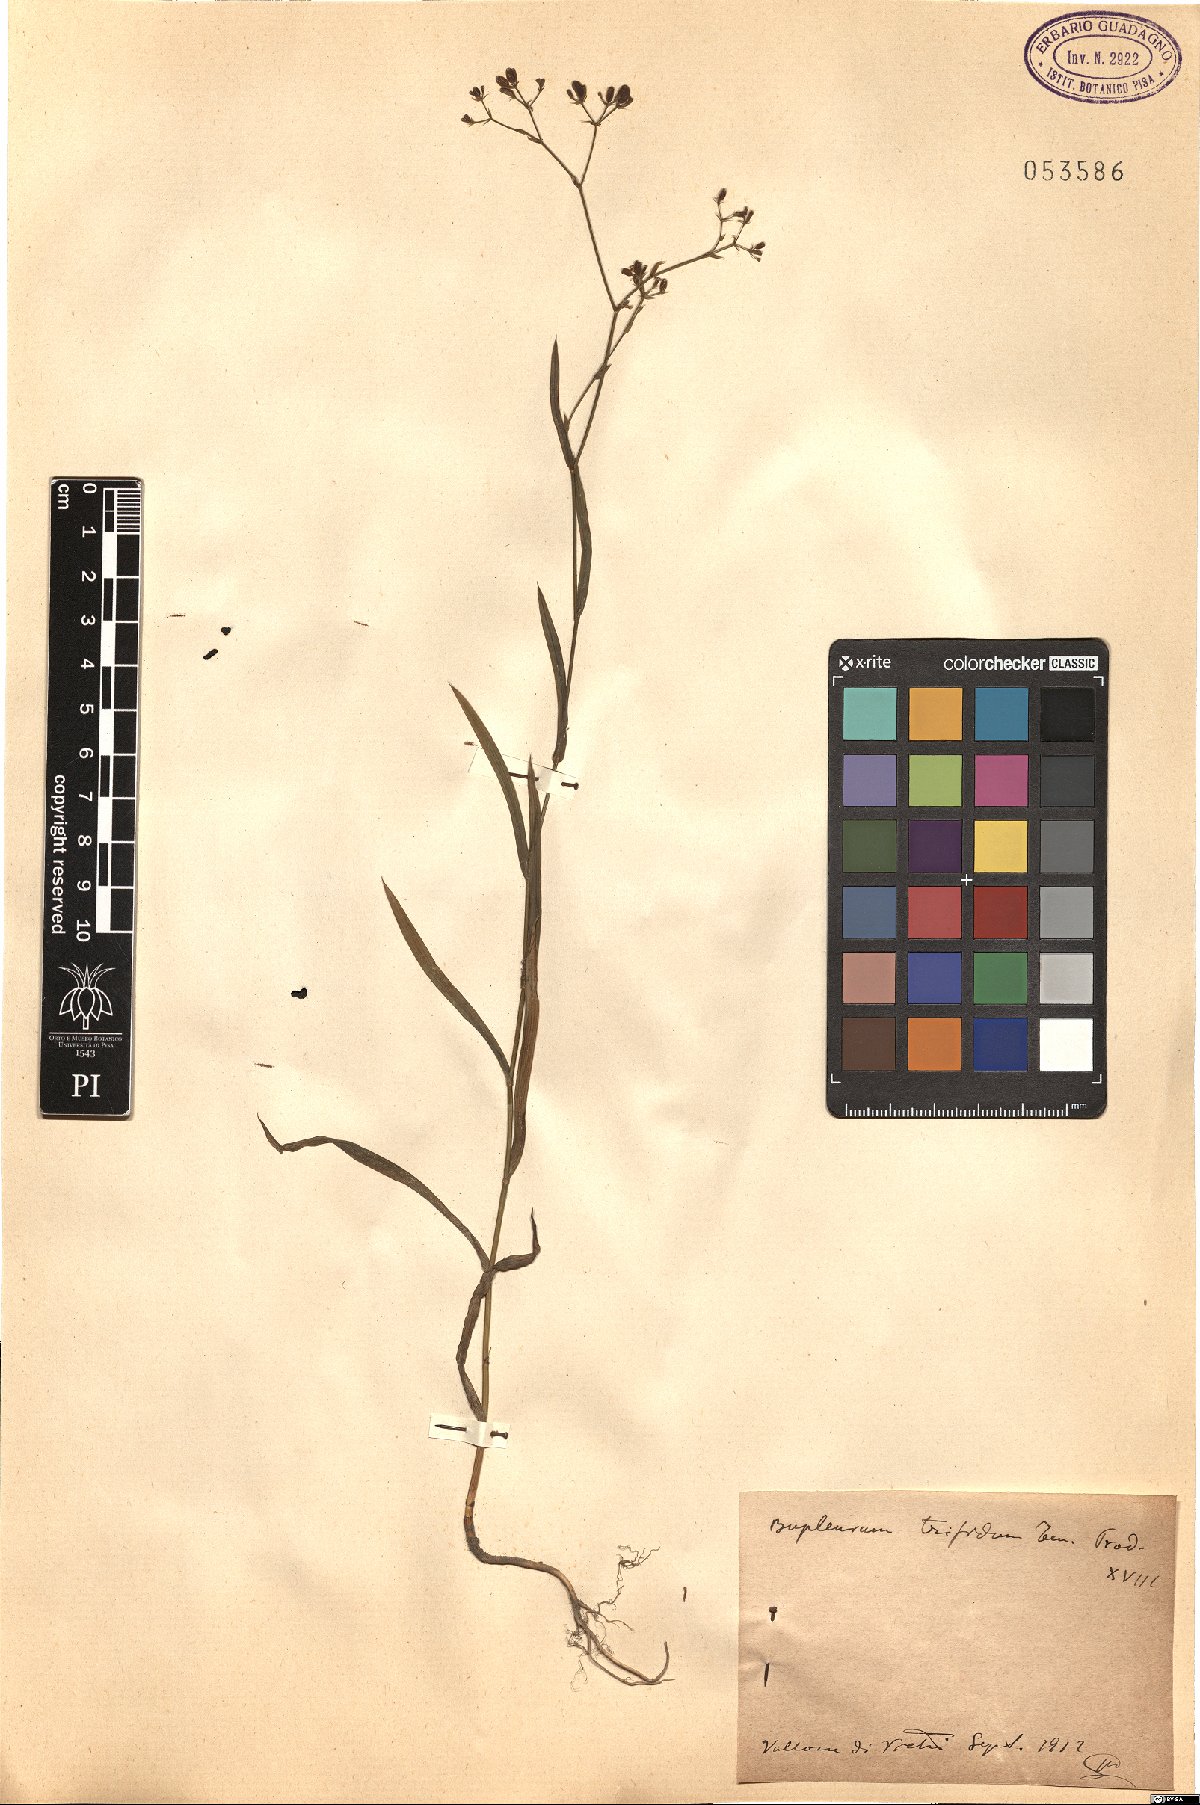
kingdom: Plantae
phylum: Tracheophyta
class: Magnoliopsida
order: Apiales
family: Apiaceae
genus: Bupleurum
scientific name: Bupleurum praealtum
